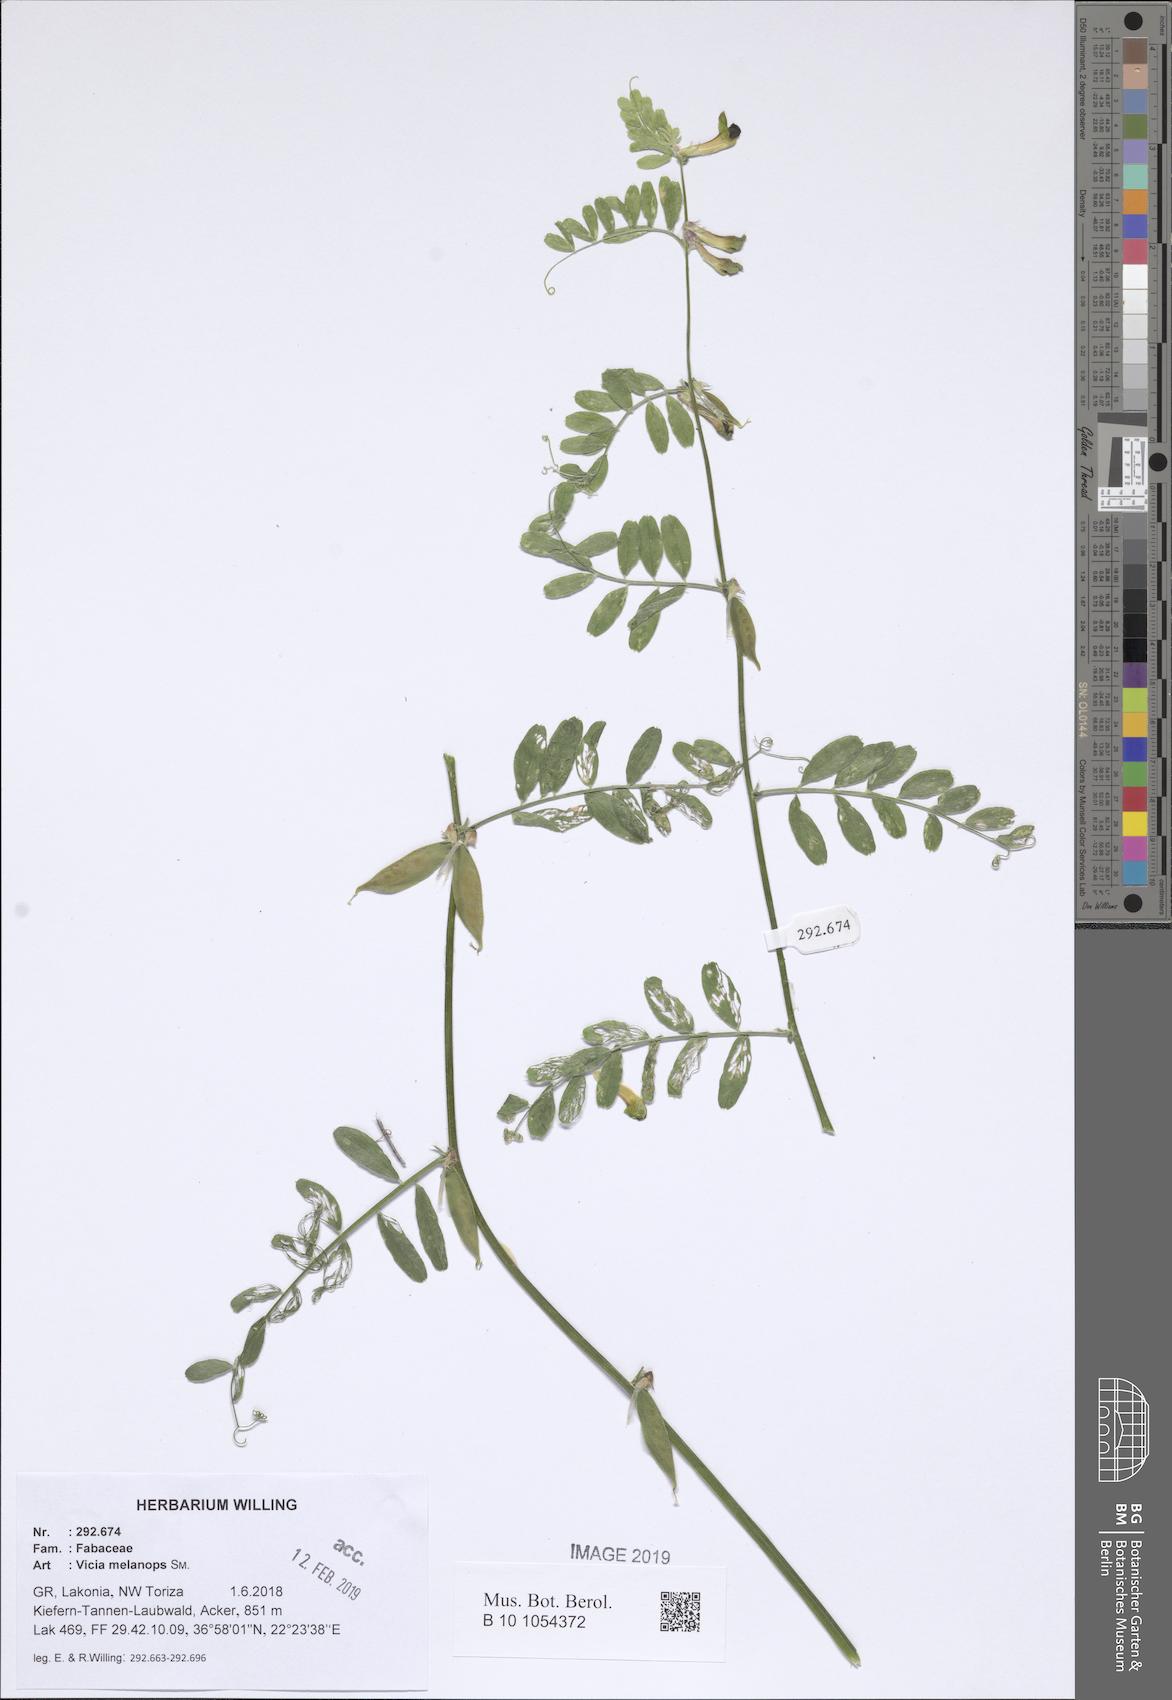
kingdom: Plantae
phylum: Tracheophyta
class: Magnoliopsida
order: Fabales
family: Fabaceae
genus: Vicia
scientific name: Vicia melanops
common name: Black-eyed vetch
